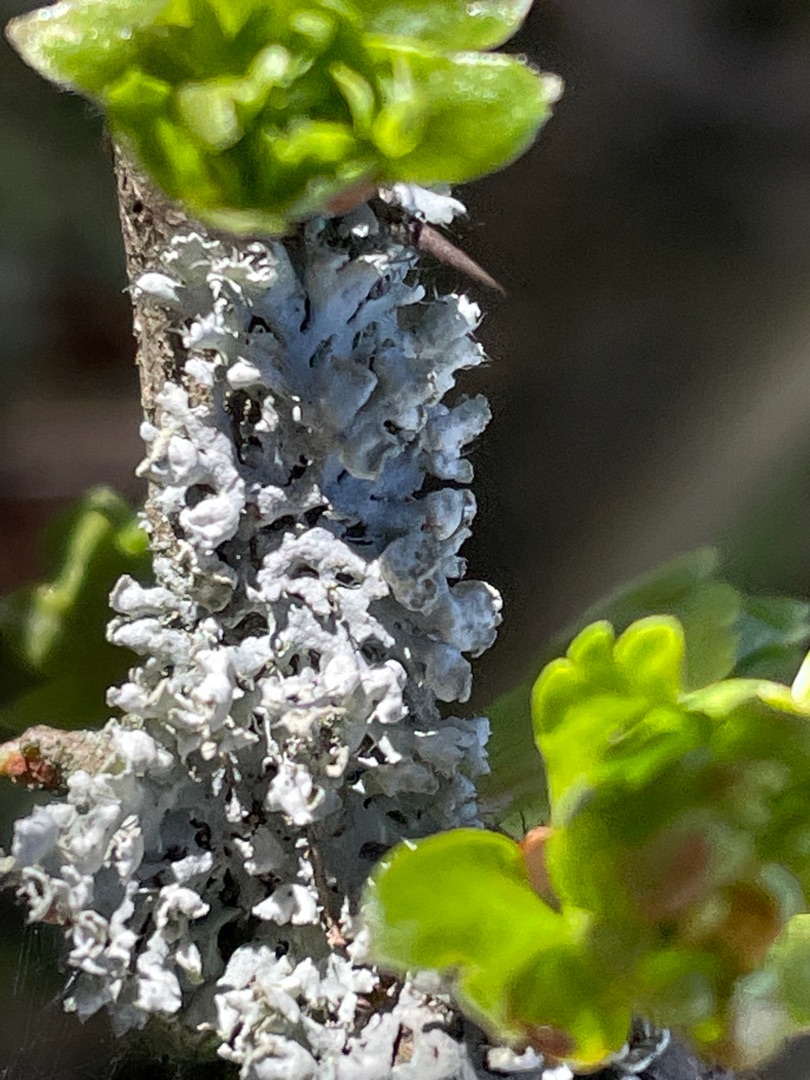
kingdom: Fungi
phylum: Ascomycota
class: Lecanoromycetes
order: Caliciales
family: Physciaceae
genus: Physcia
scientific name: Physcia adscendens
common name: Hætte-rosetlav
